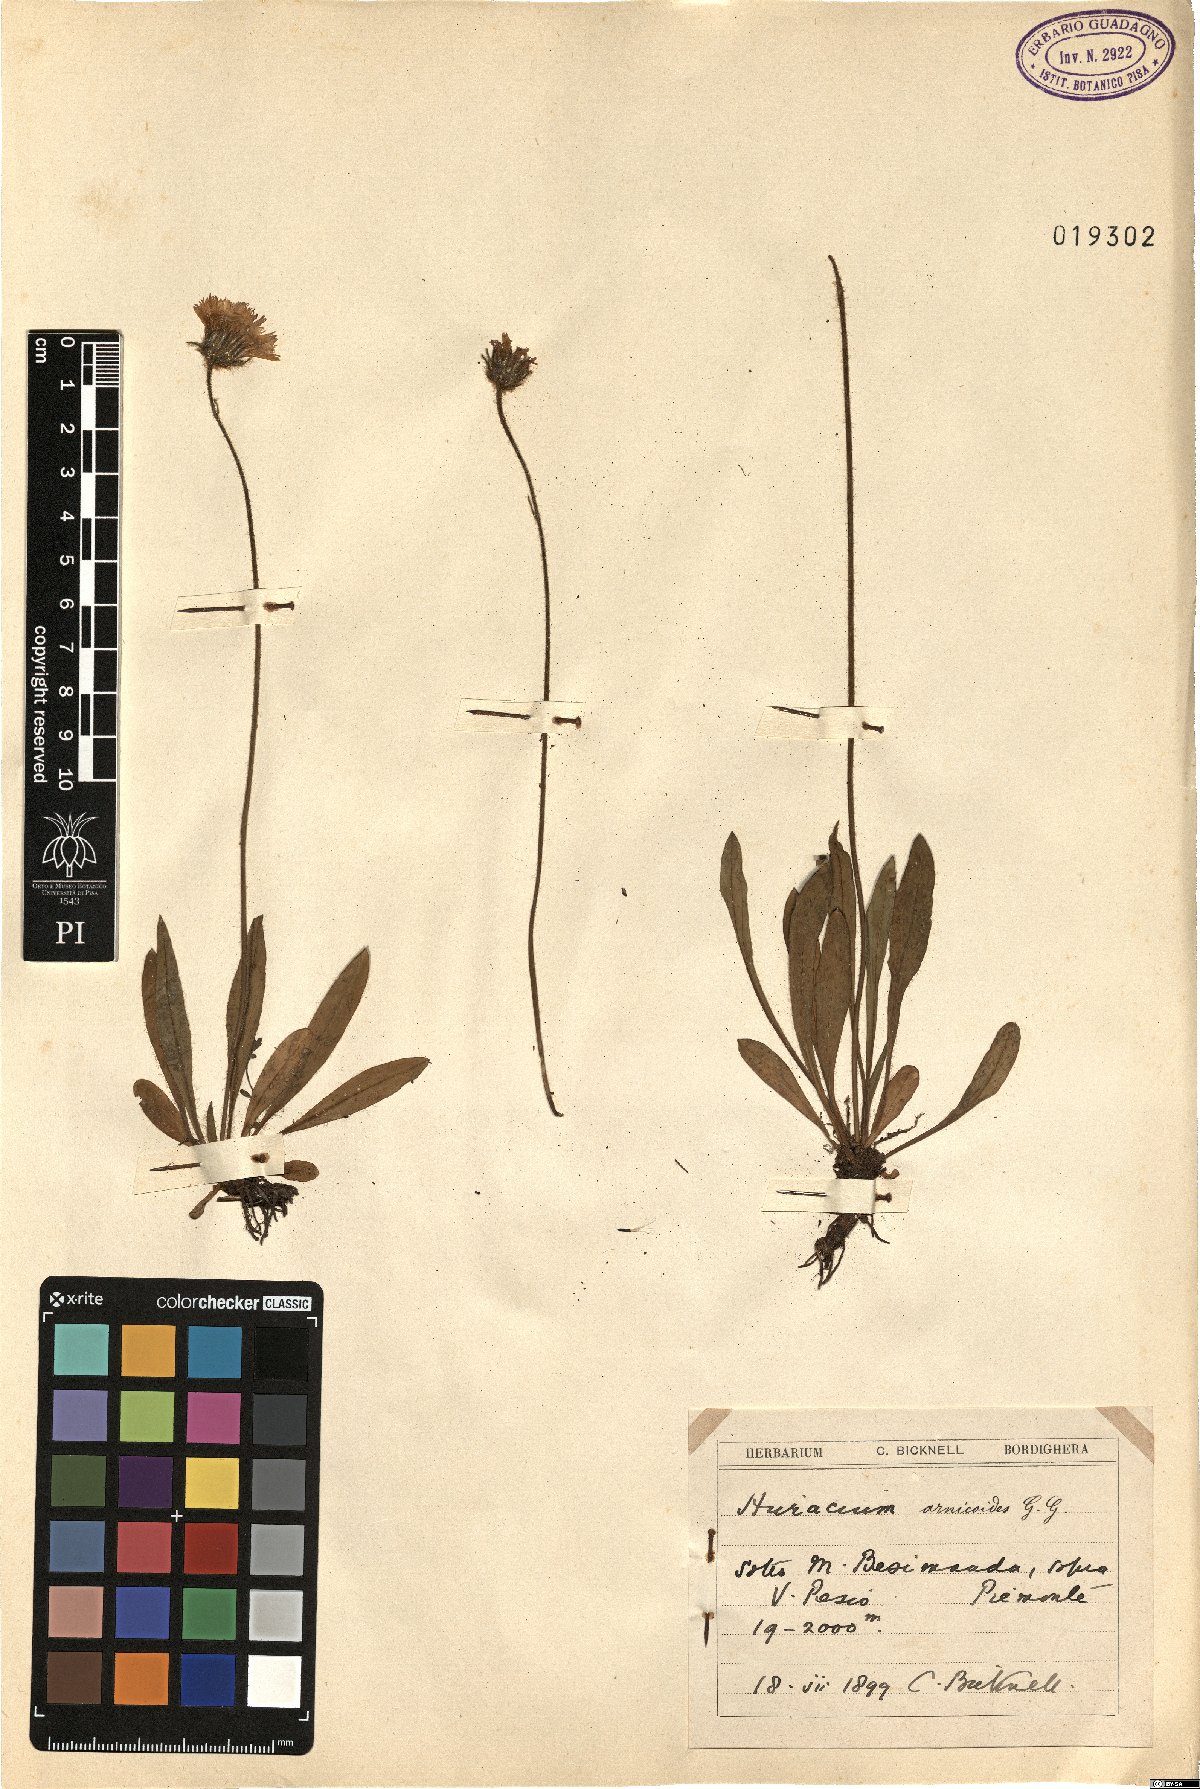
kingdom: Plantae
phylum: Tracheophyta
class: Magnoliopsida
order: Asterales
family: Asteraceae
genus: Hieracium
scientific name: Hieracium glaucinum
